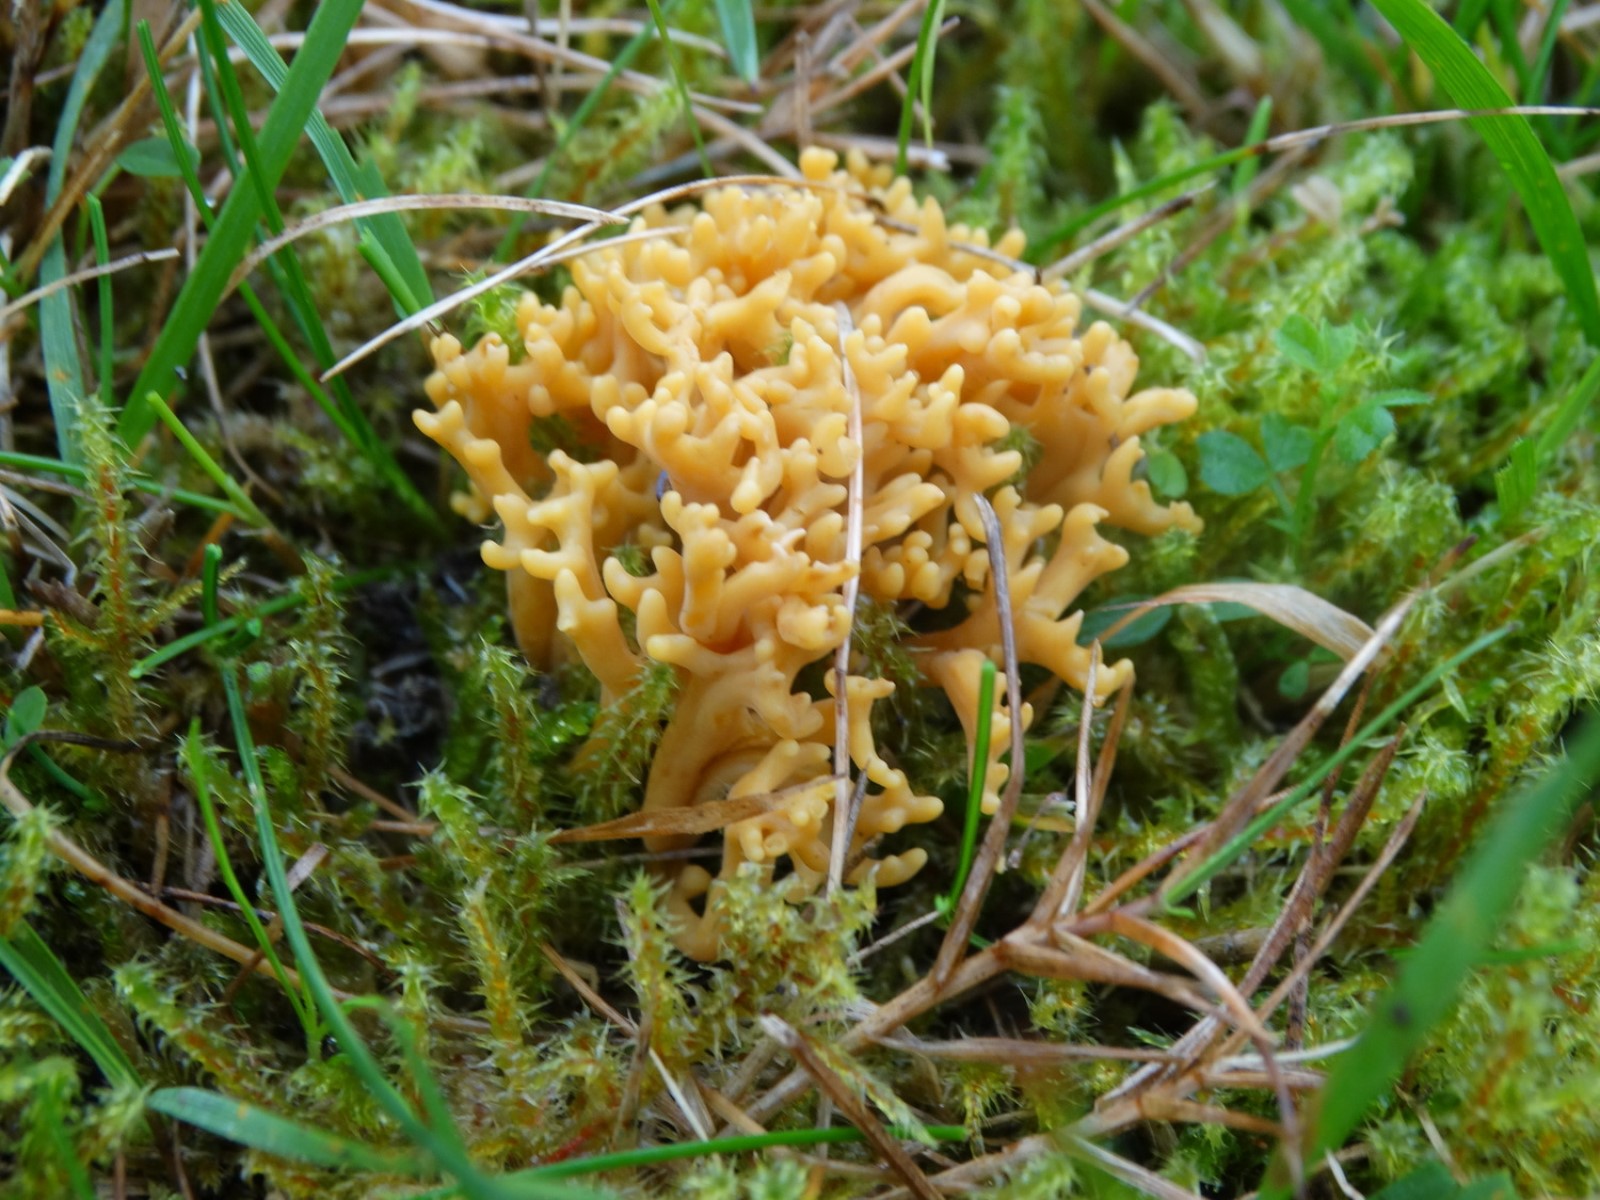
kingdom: Fungi
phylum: Basidiomycota
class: Agaricomycetes
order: Agaricales
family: Clavariaceae
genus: Clavulinopsis
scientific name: Clavulinopsis corniculata
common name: eng-køllesvamp
